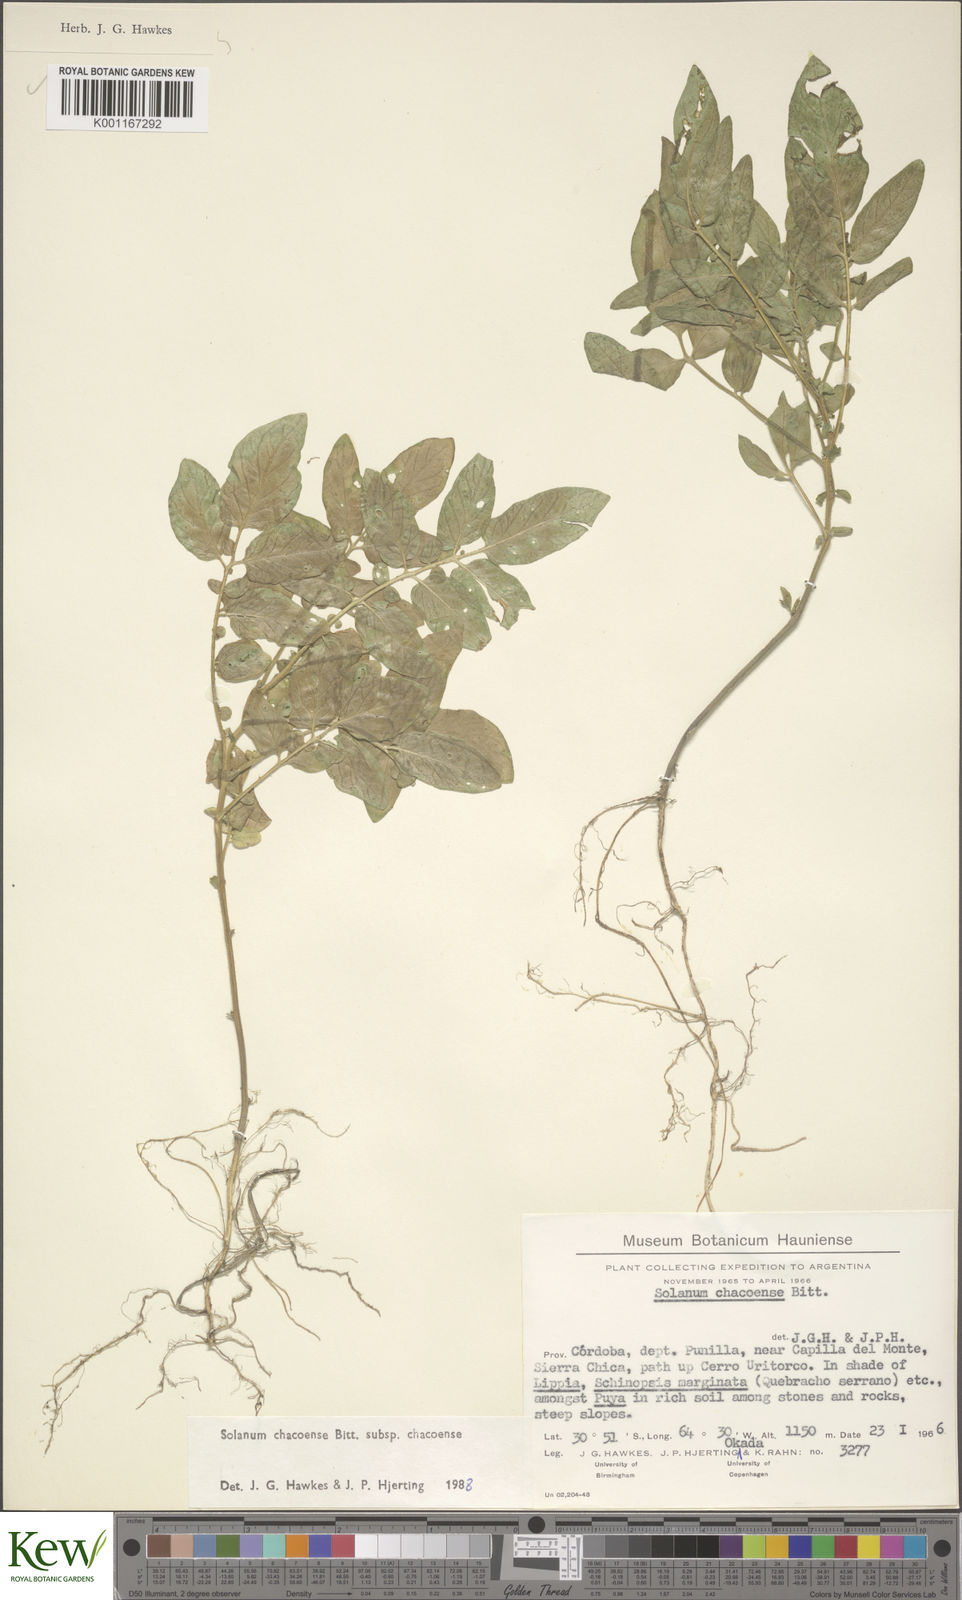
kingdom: Plantae
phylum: Tracheophyta
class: Magnoliopsida
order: Solanales
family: Solanaceae
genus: Solanum
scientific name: Solanum chacoense
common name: Chaco potato
